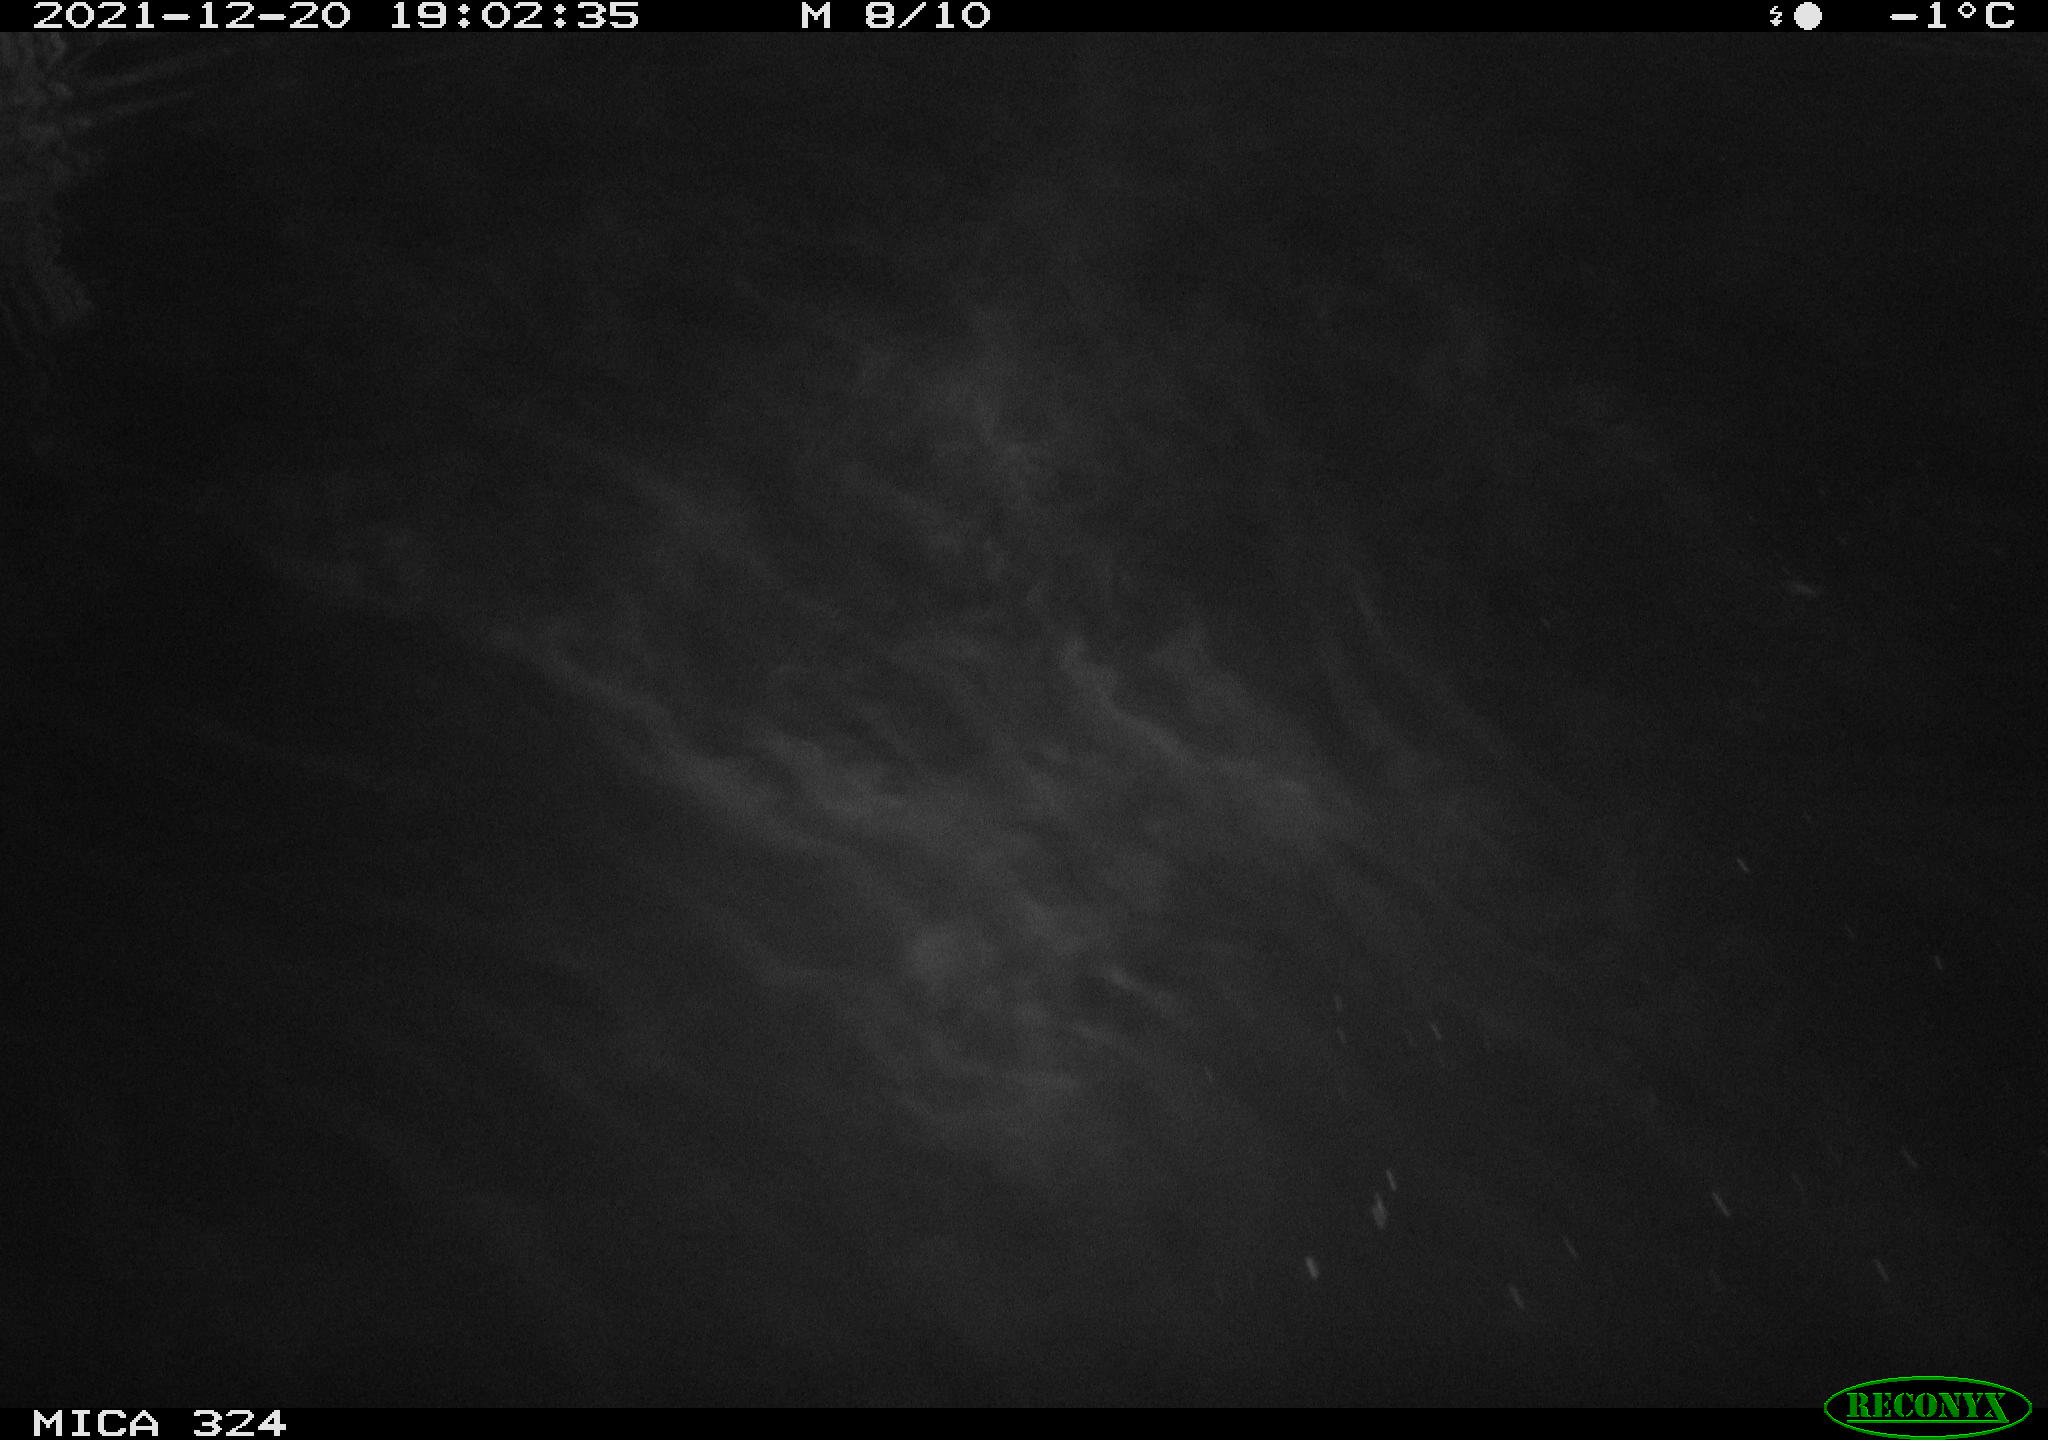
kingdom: Animalia
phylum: Chordata
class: Mammalia
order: Rodentia
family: Cricetidae
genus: Ondatra
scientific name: Ondatra zibethicus
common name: Muskrat
